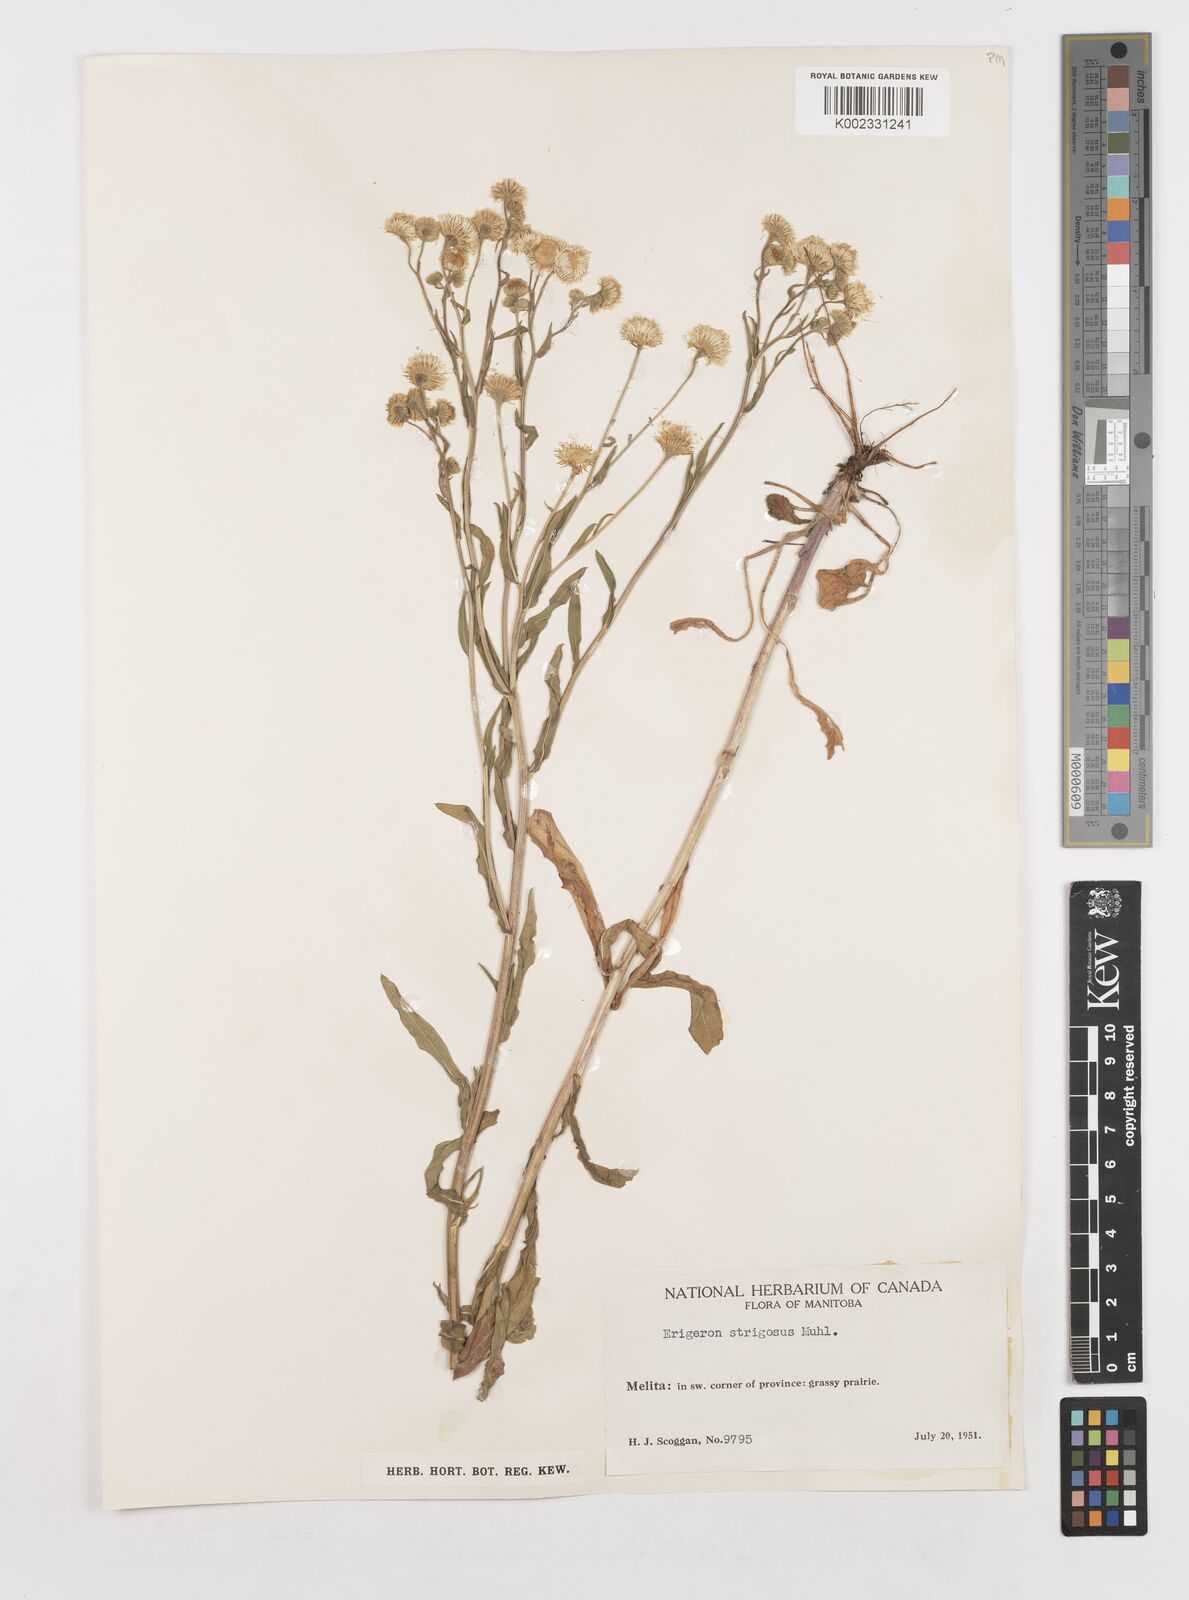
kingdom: Plantae
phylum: Tracheophyta
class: Magnoliopsida
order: Asterales
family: Asteraceae
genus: Erigeron
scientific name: Erigeron strigosus
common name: Common eastern fleabane
